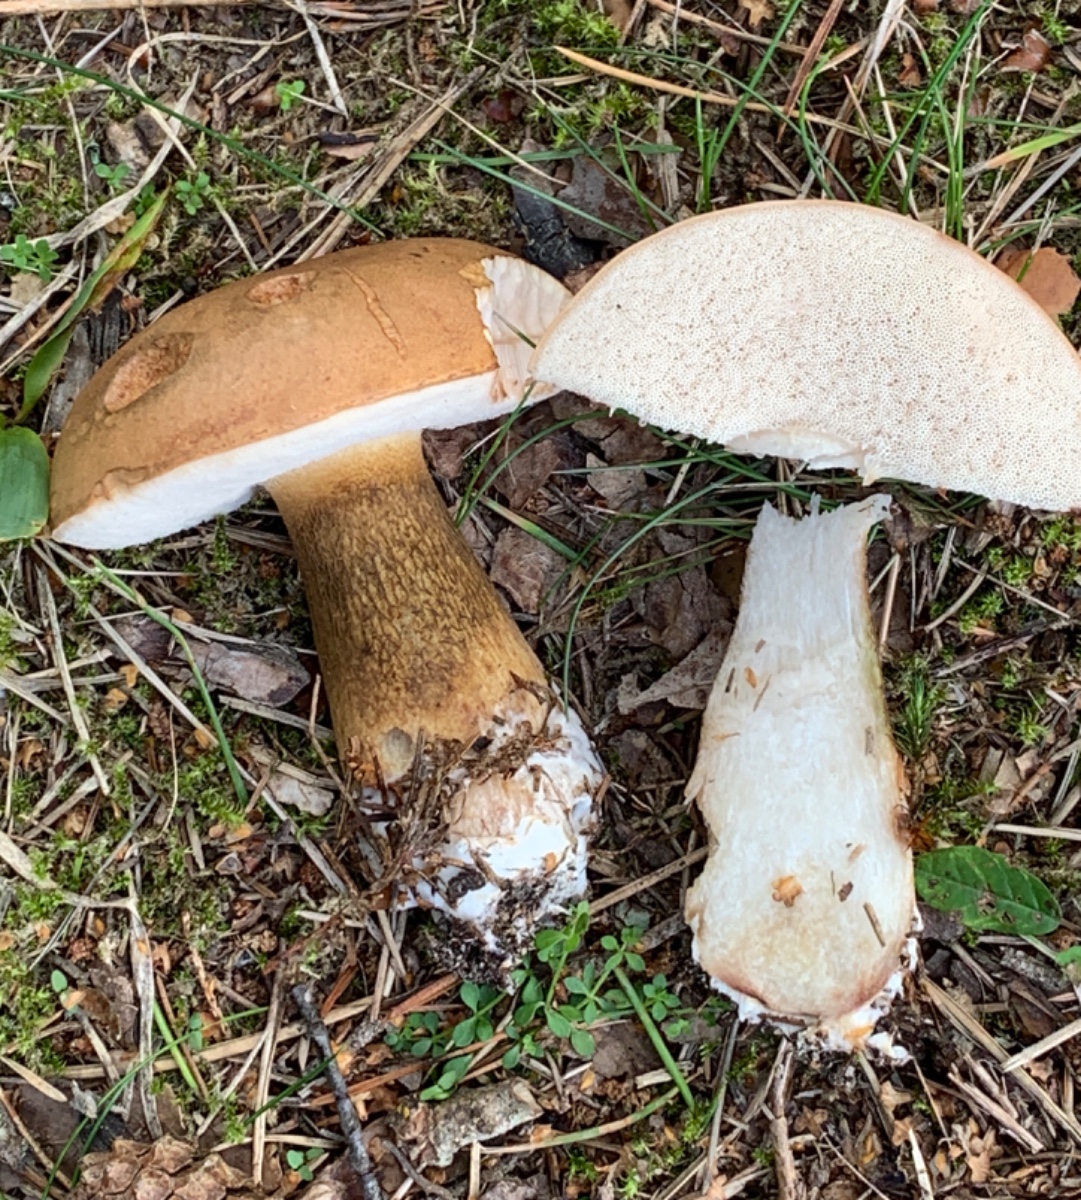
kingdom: Fungi
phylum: Basidiomycota
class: Agaricomycetes
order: Boletales
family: Boletaceae
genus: Tylopilus
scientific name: Tylopilus felleus
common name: galderørhat
